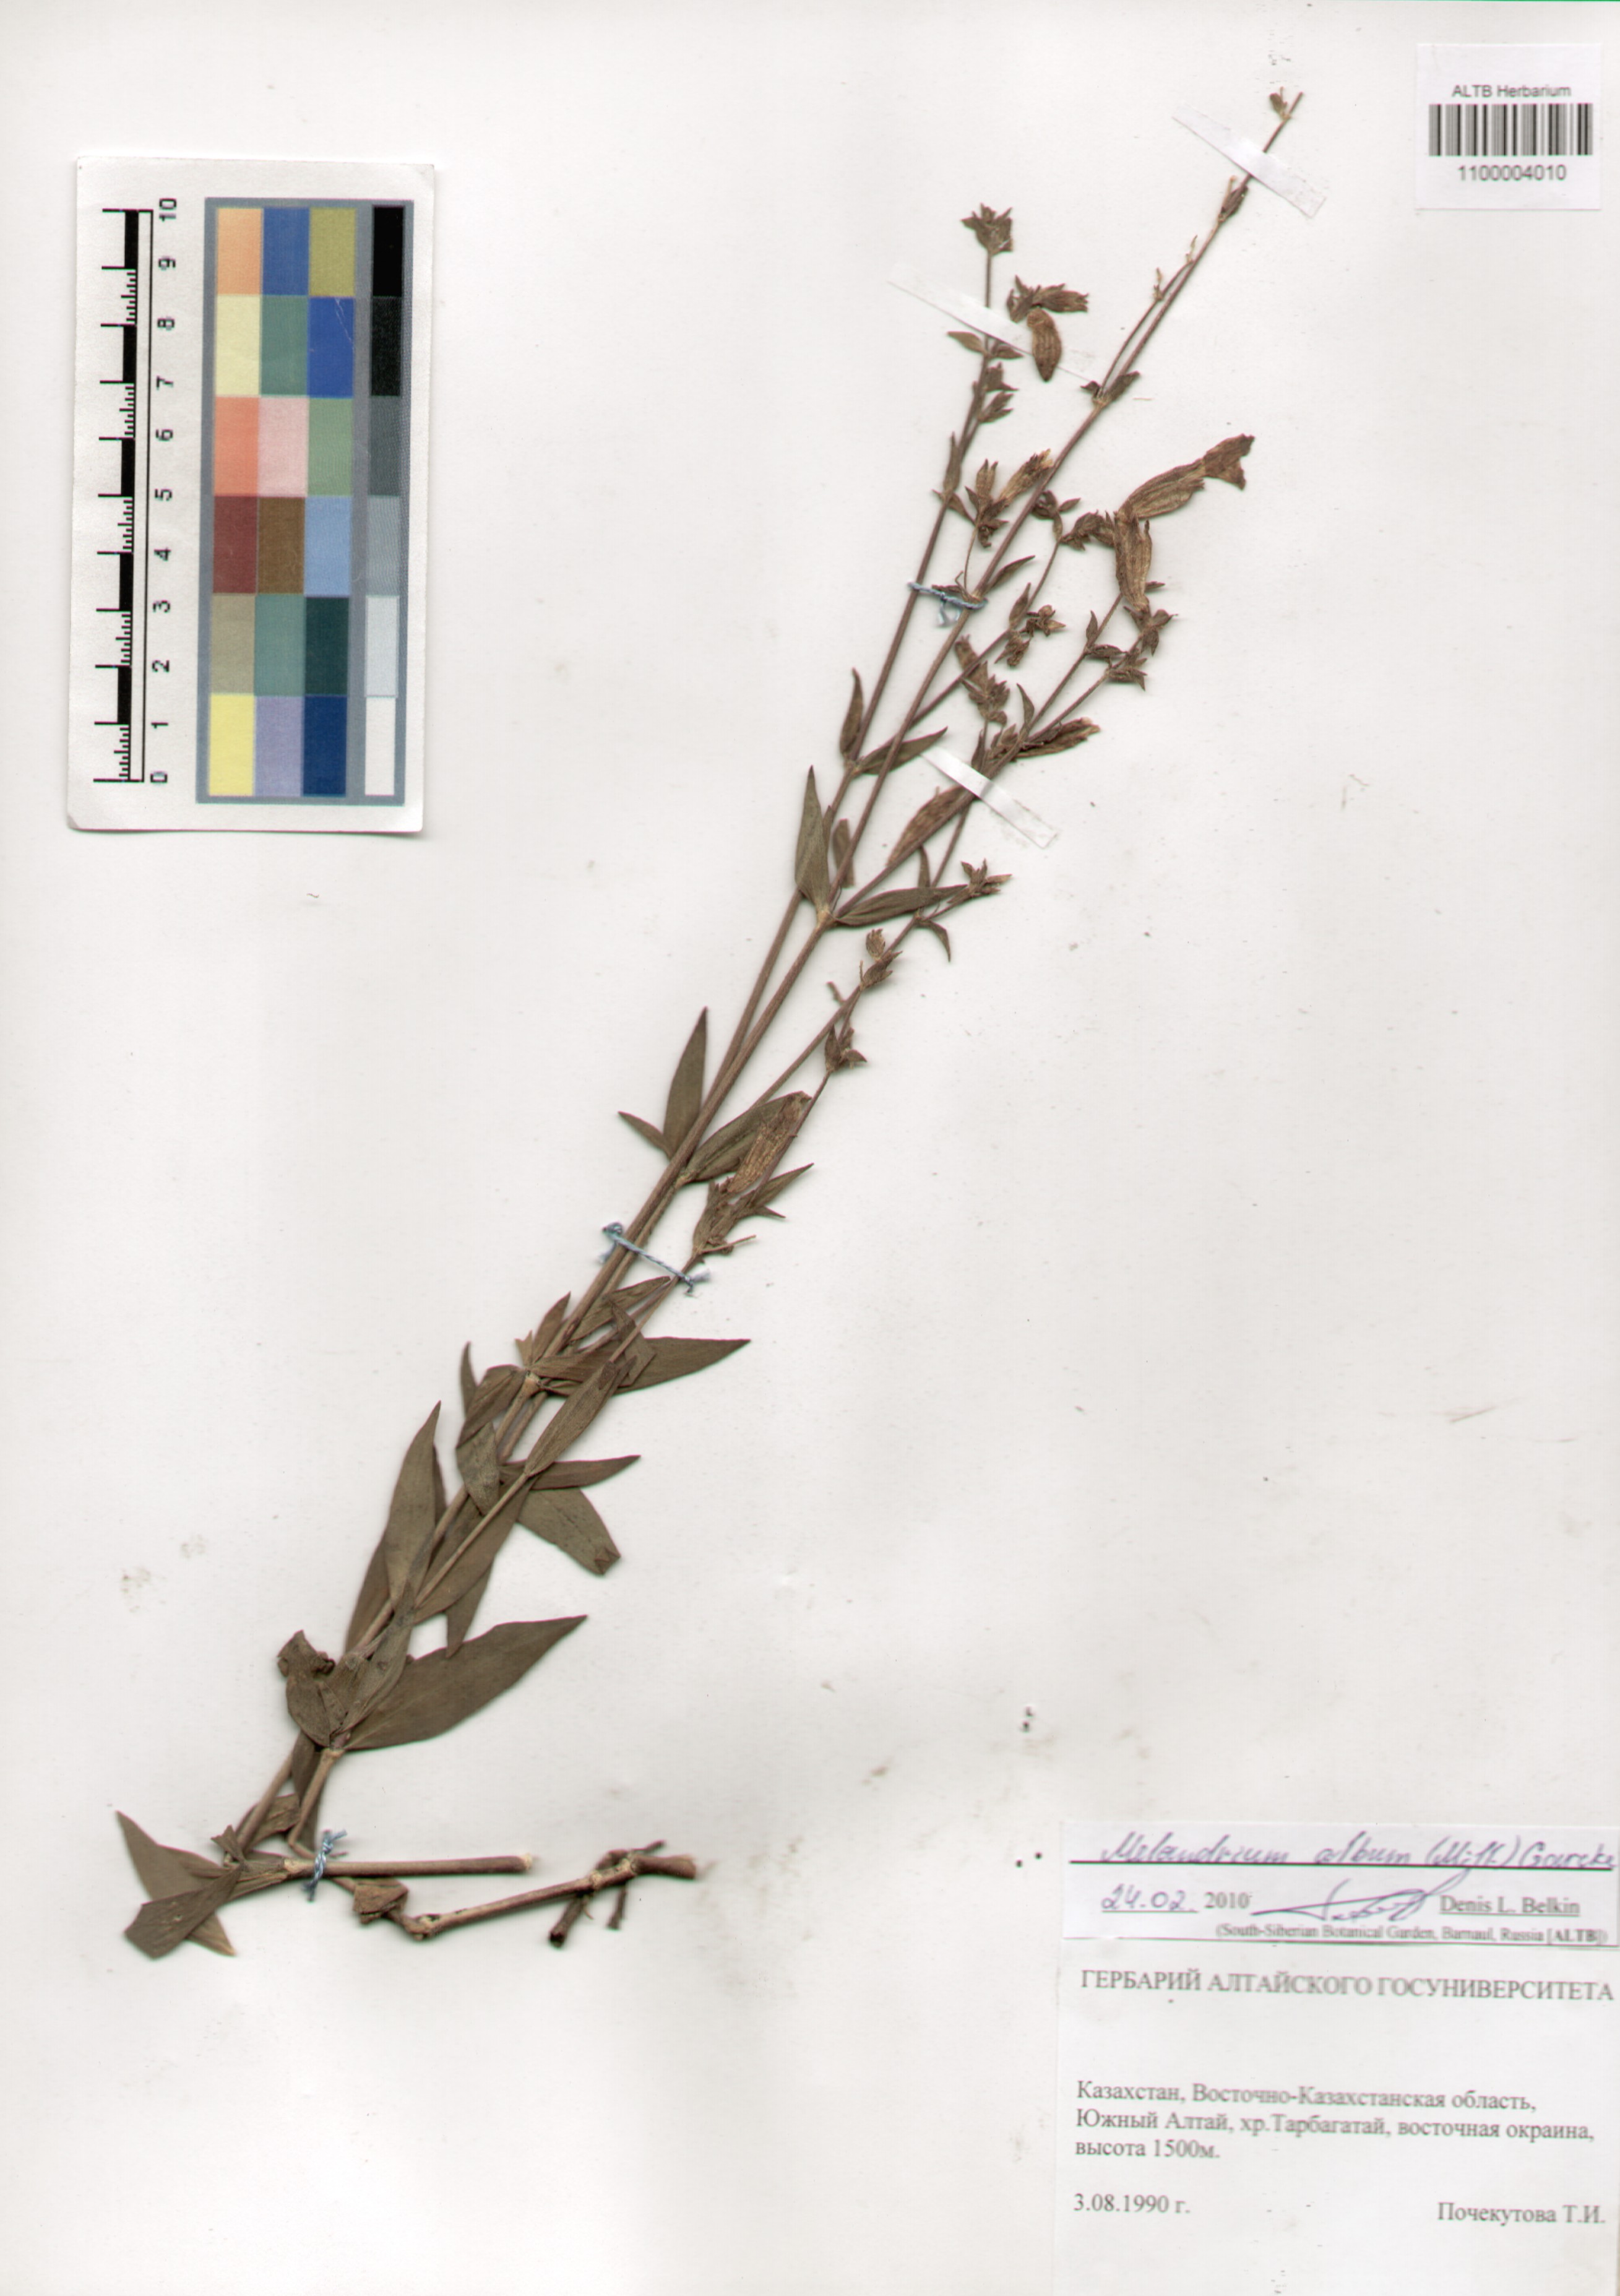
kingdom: Plantae
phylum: Tracheophyta
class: Magnoliopsida
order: Caryophyllales
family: Caryophyllaceae
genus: Silene
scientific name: Silene latifolia
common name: White campion
